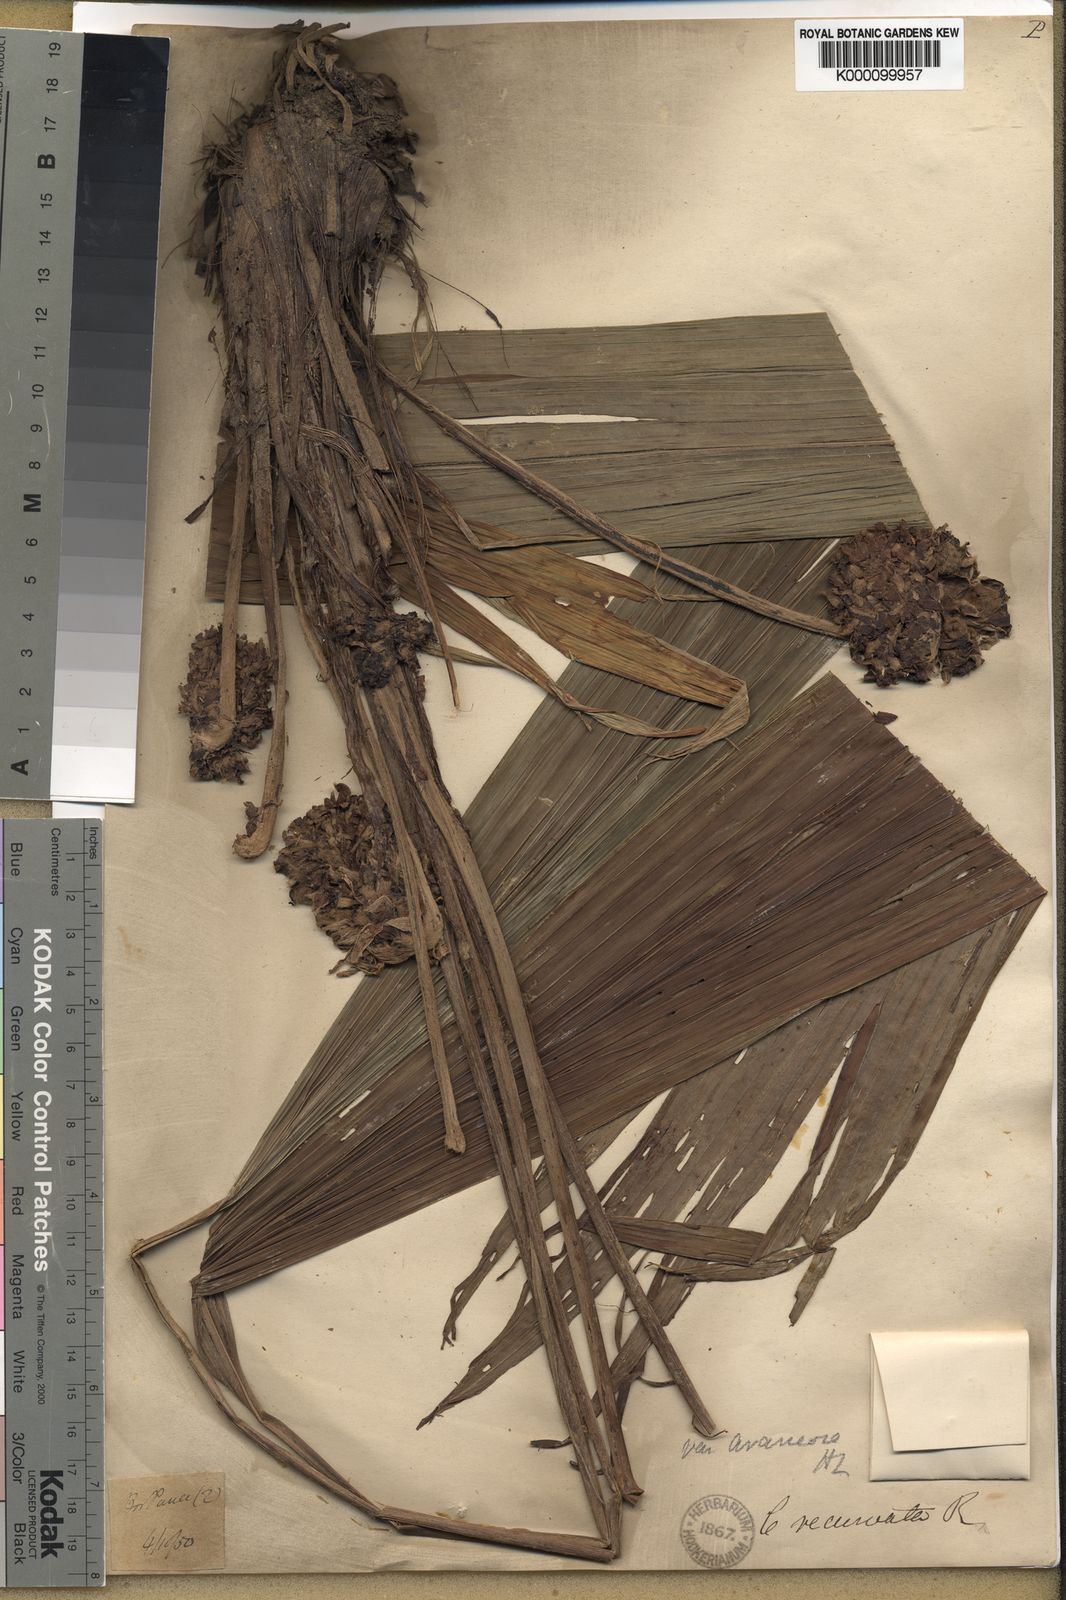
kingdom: Plantae
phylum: Tracheophyta
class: Liliopsida
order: Asparagales
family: Hypoxidaceae
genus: Curculigo
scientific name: Curculigo capitulata
